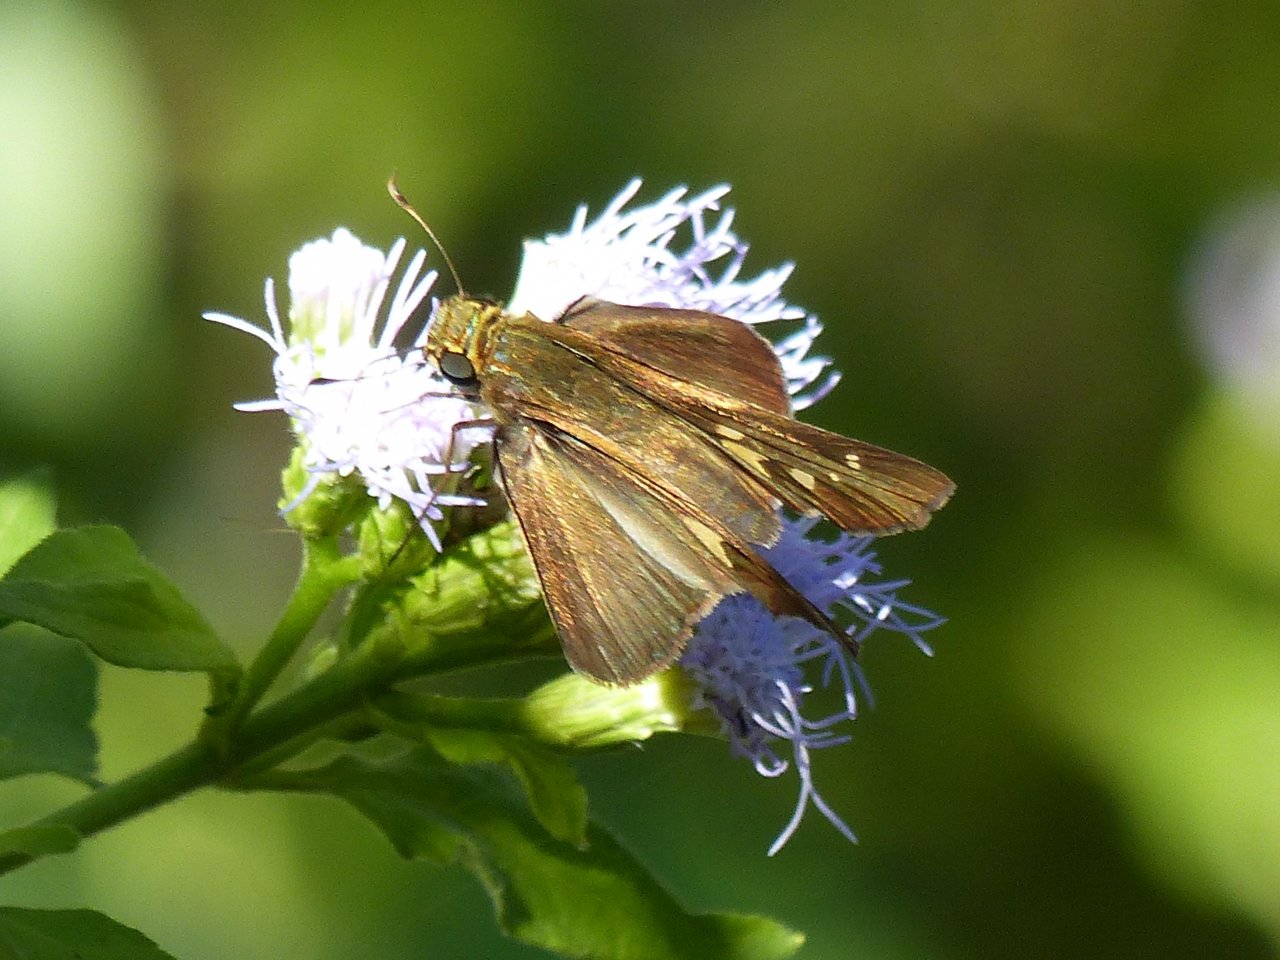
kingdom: Animalia
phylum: Arthropoda
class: Insecta
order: Lepidoptera
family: Hesperiidae
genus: Turesis
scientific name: Turesis lucas
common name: Purple-washed Skipper
